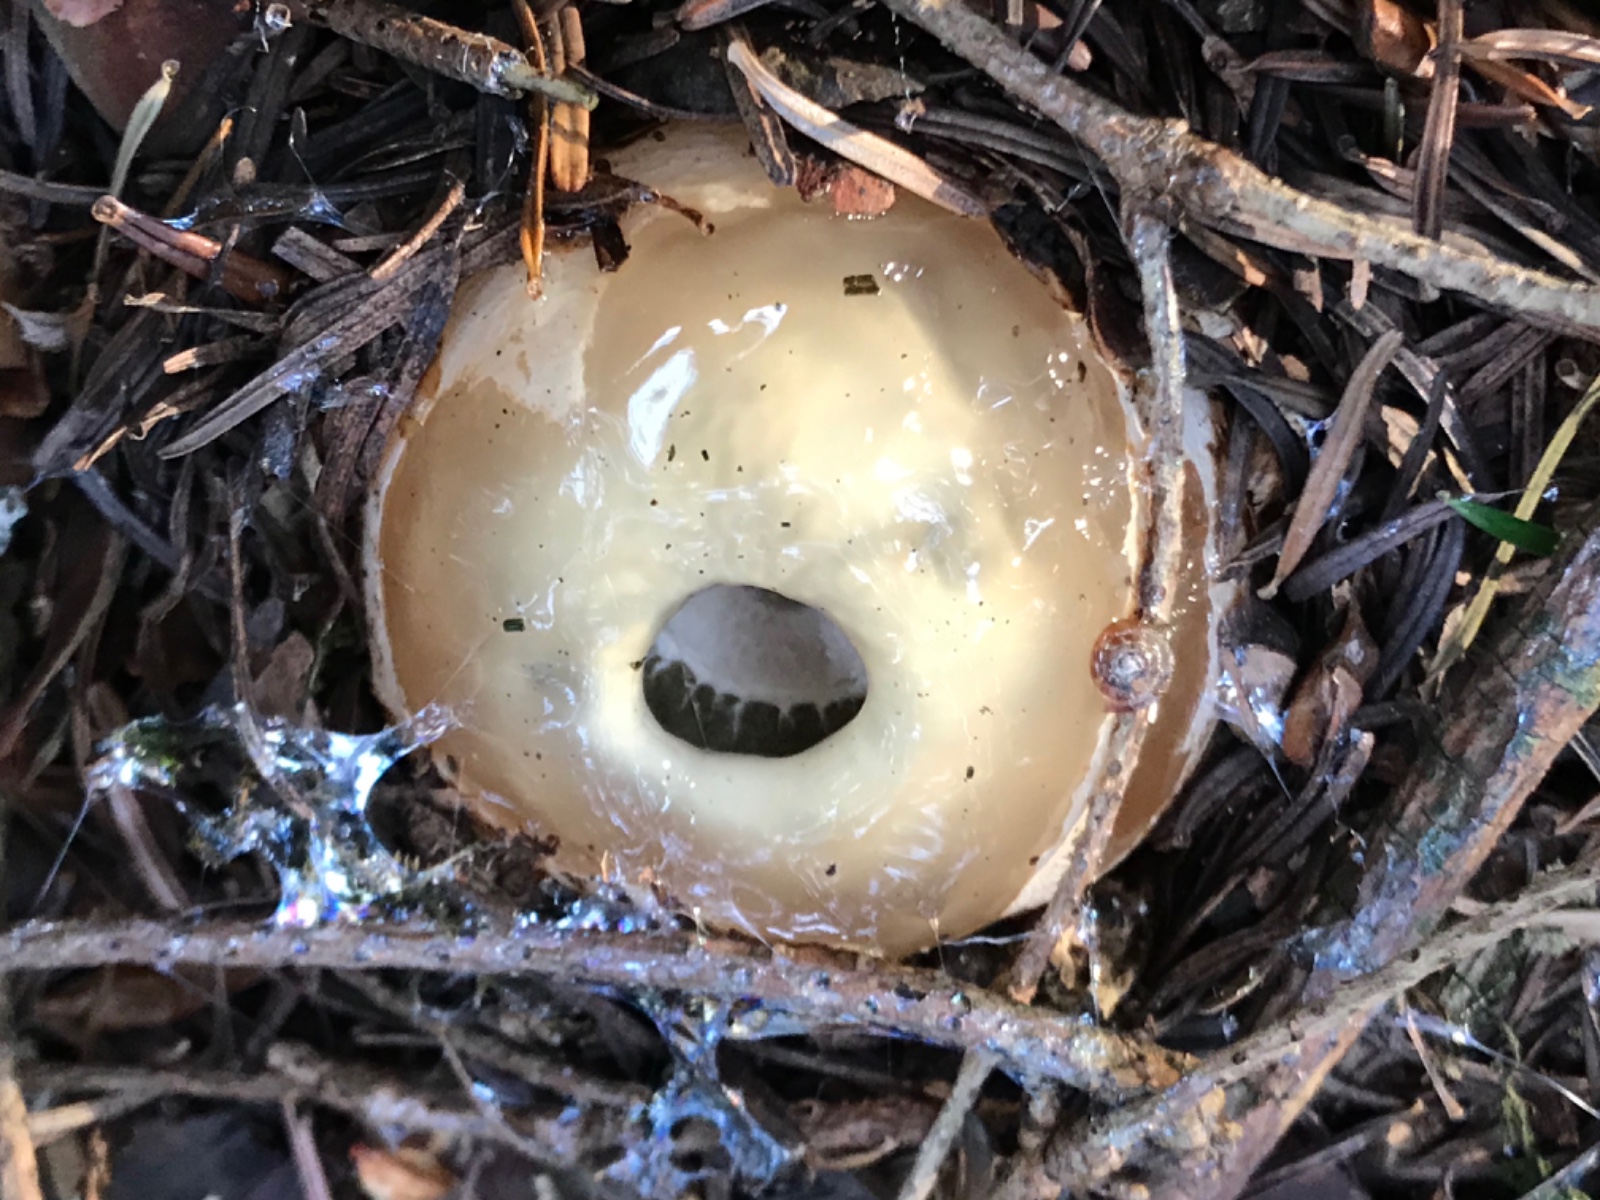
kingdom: Fungi
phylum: Basidiomycota
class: Agaricomycetes
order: Phallales
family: Phallaceae
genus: Phallus
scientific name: Phallus impudicus
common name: almindelig stinksvamp
